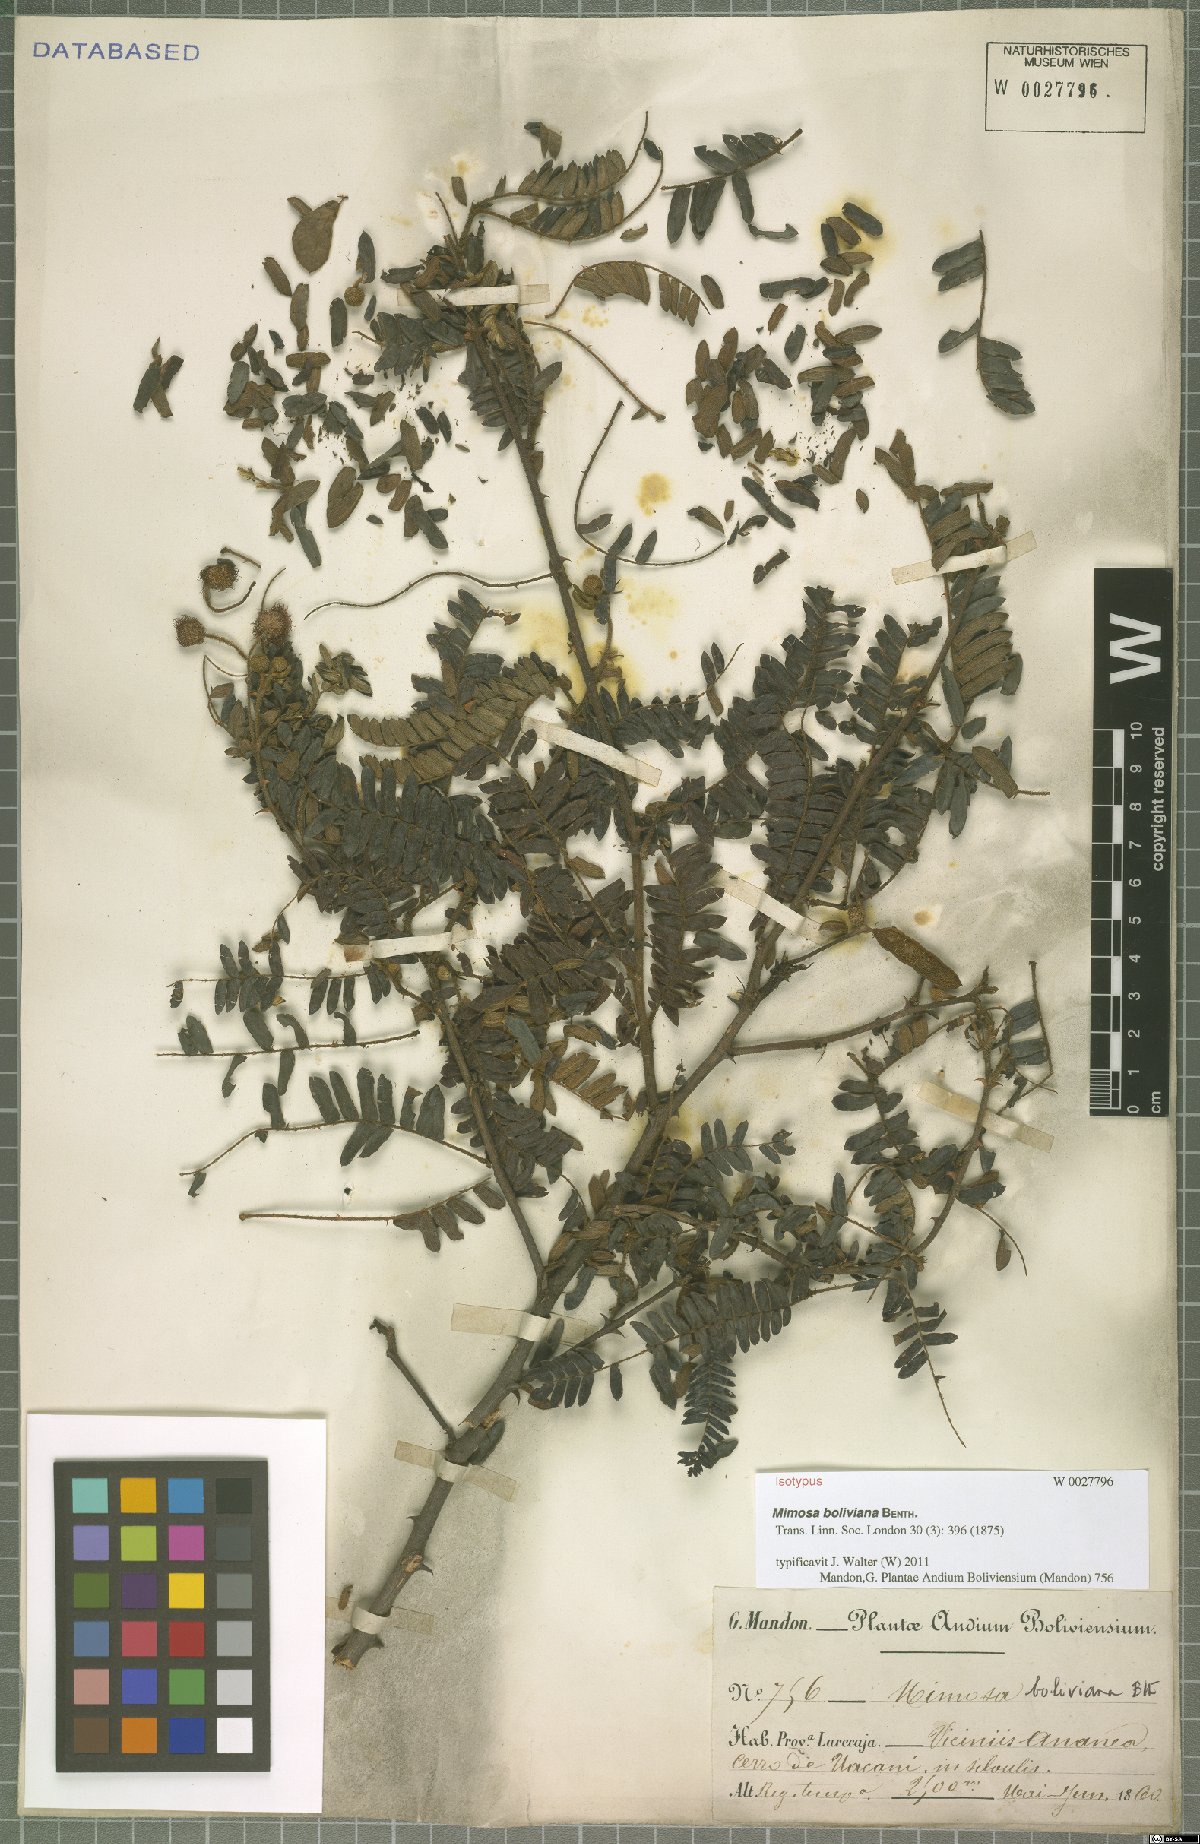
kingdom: Plantae
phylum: Tracheophyta
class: Magnoliopsida
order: Fabales
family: Fabaceae
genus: Mimosa
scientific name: Mimosa boliviana
